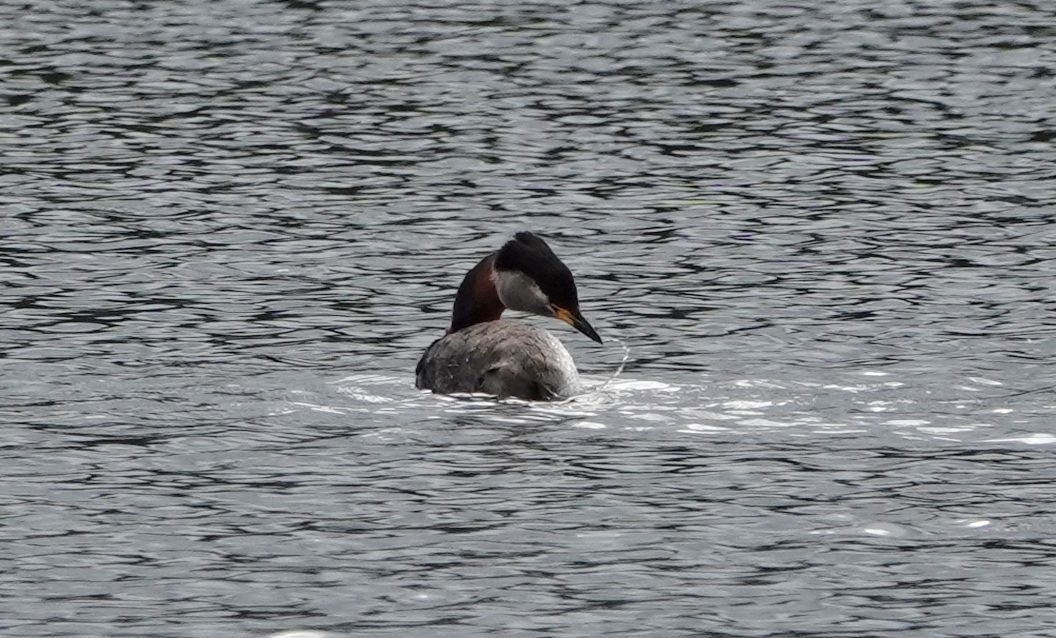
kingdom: Animalia
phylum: Chordata
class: Aves
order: Podicipediformes
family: Podicipedidae
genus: Podiceps
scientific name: Podiceps grisegena
